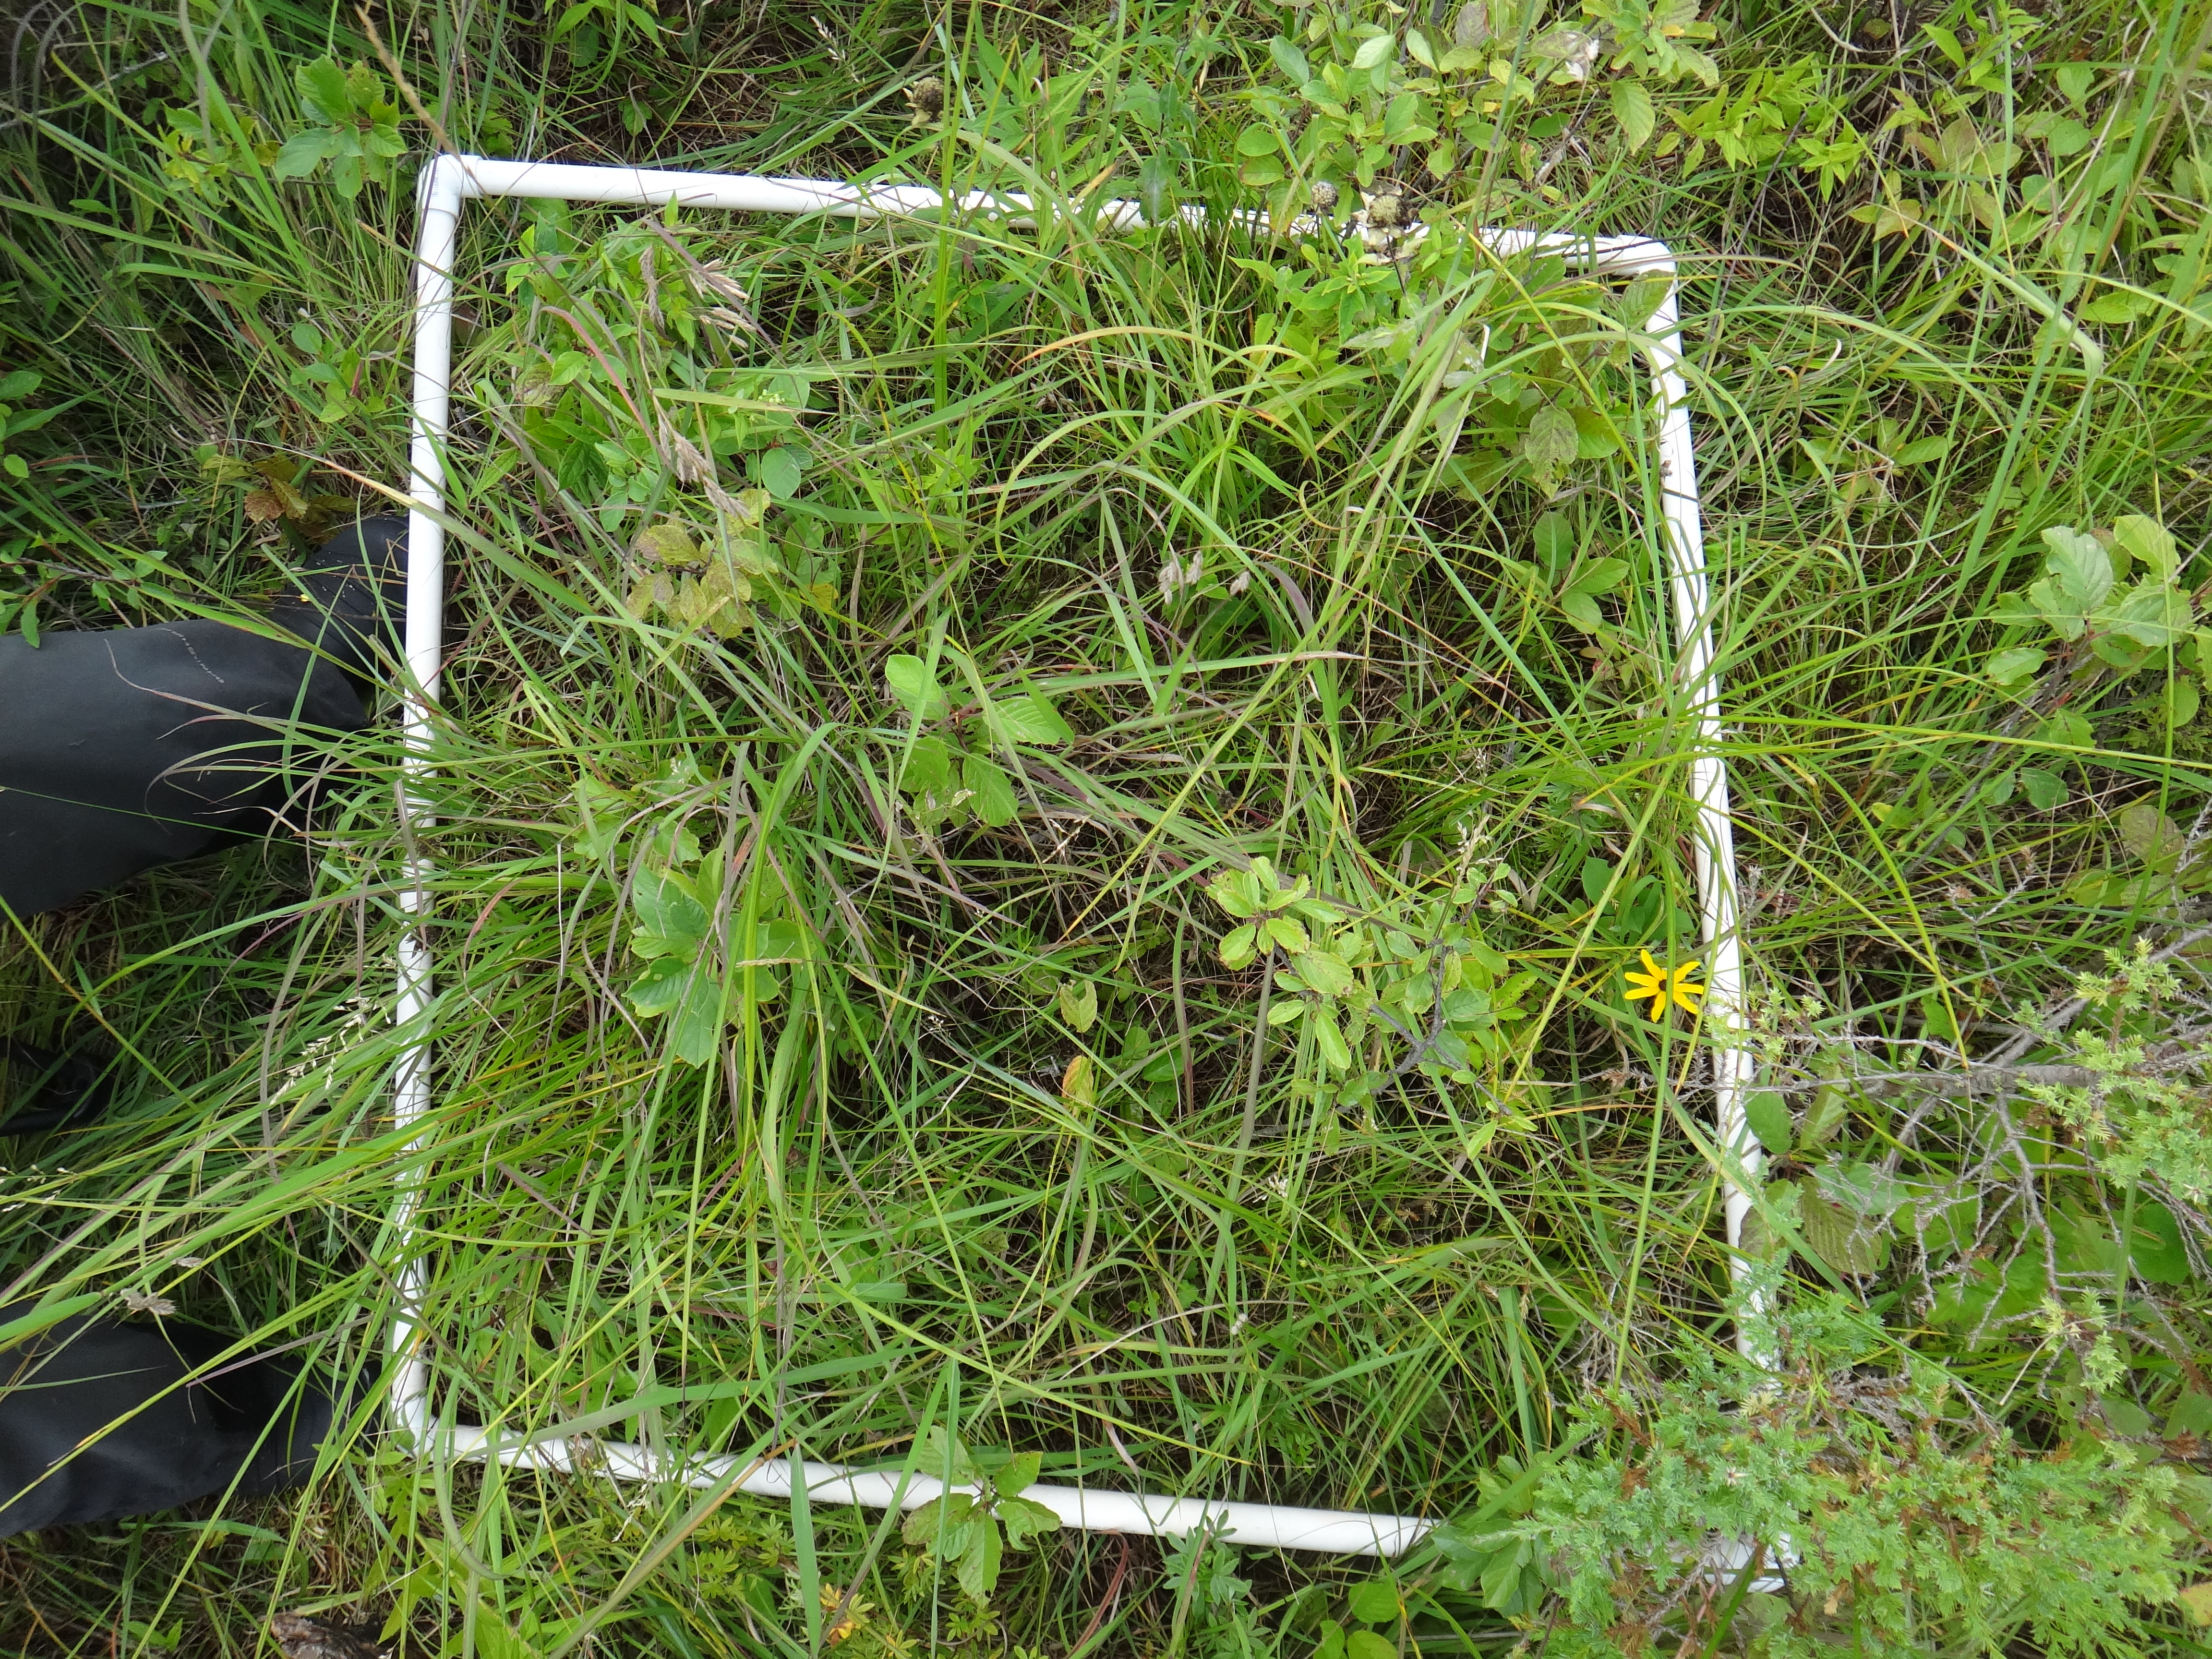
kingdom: Plantae
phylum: Tracheophyta
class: Liliopsida
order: Poales
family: Cyperaceae
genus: Carex
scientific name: Carex lasiocarpa
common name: Slender sedge
